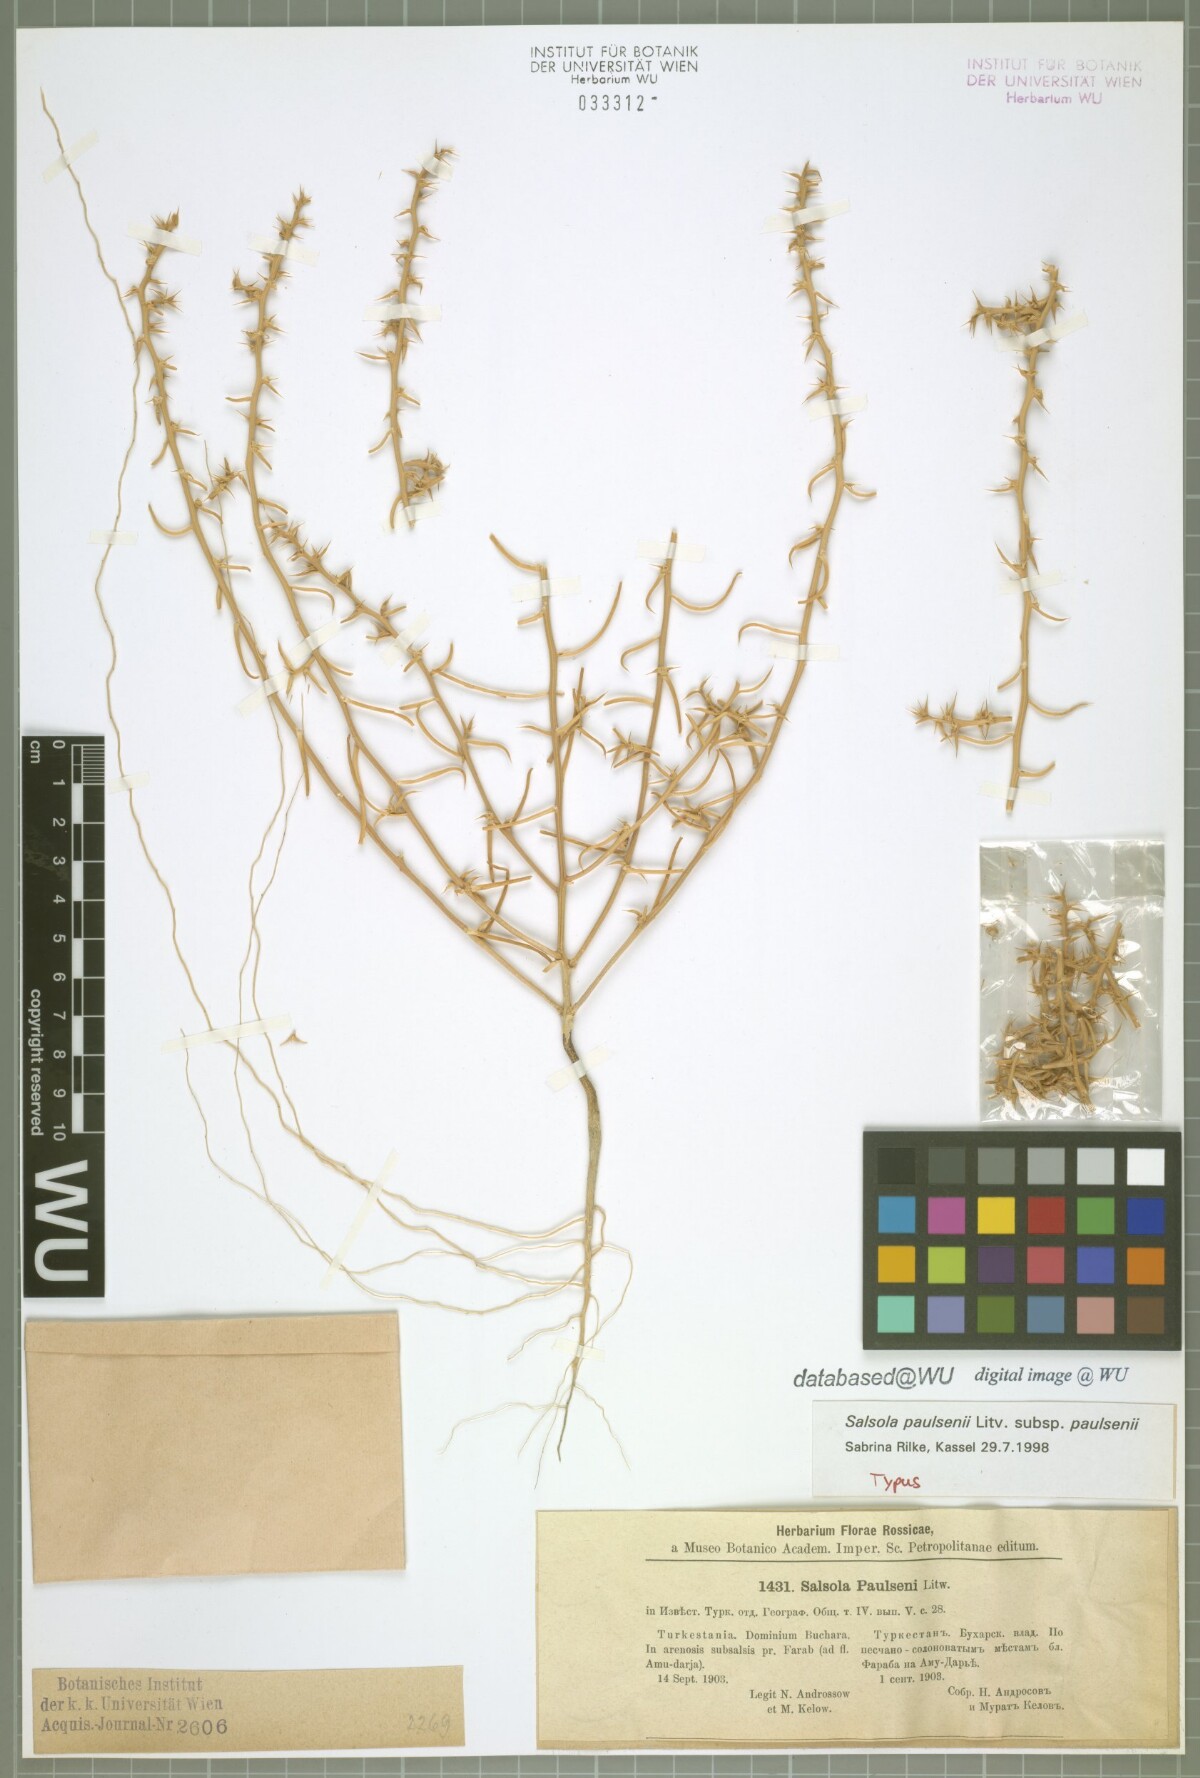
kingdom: Plantae
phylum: Tracheophyta
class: Magnoliopsida
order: Caryophyllales
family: Amaranthaceae
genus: Salsola
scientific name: Salsola paulsenii
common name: Barbwire russian thistle
